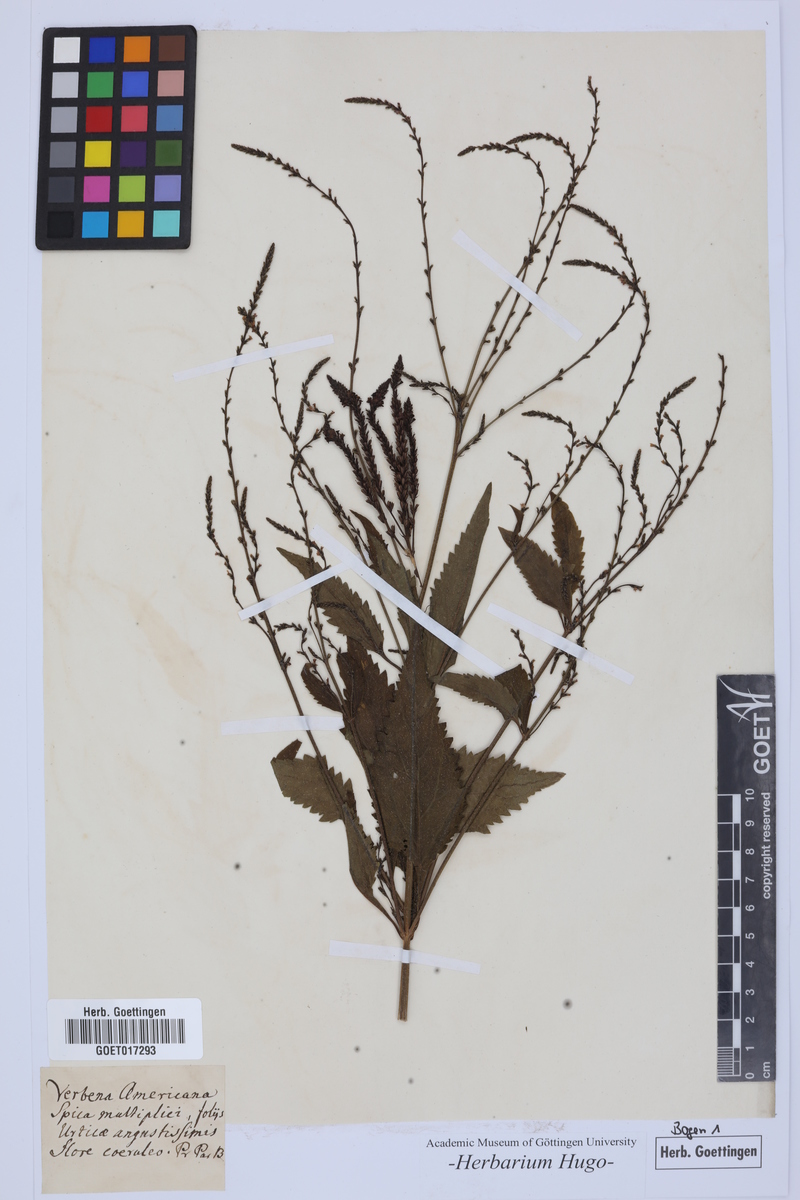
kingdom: Plantae
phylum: Tracheophyta
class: Magnoliopsida
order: Lamiales
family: Verbenaceae
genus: Verbena
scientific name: Verbena hastata
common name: American blue vervain
